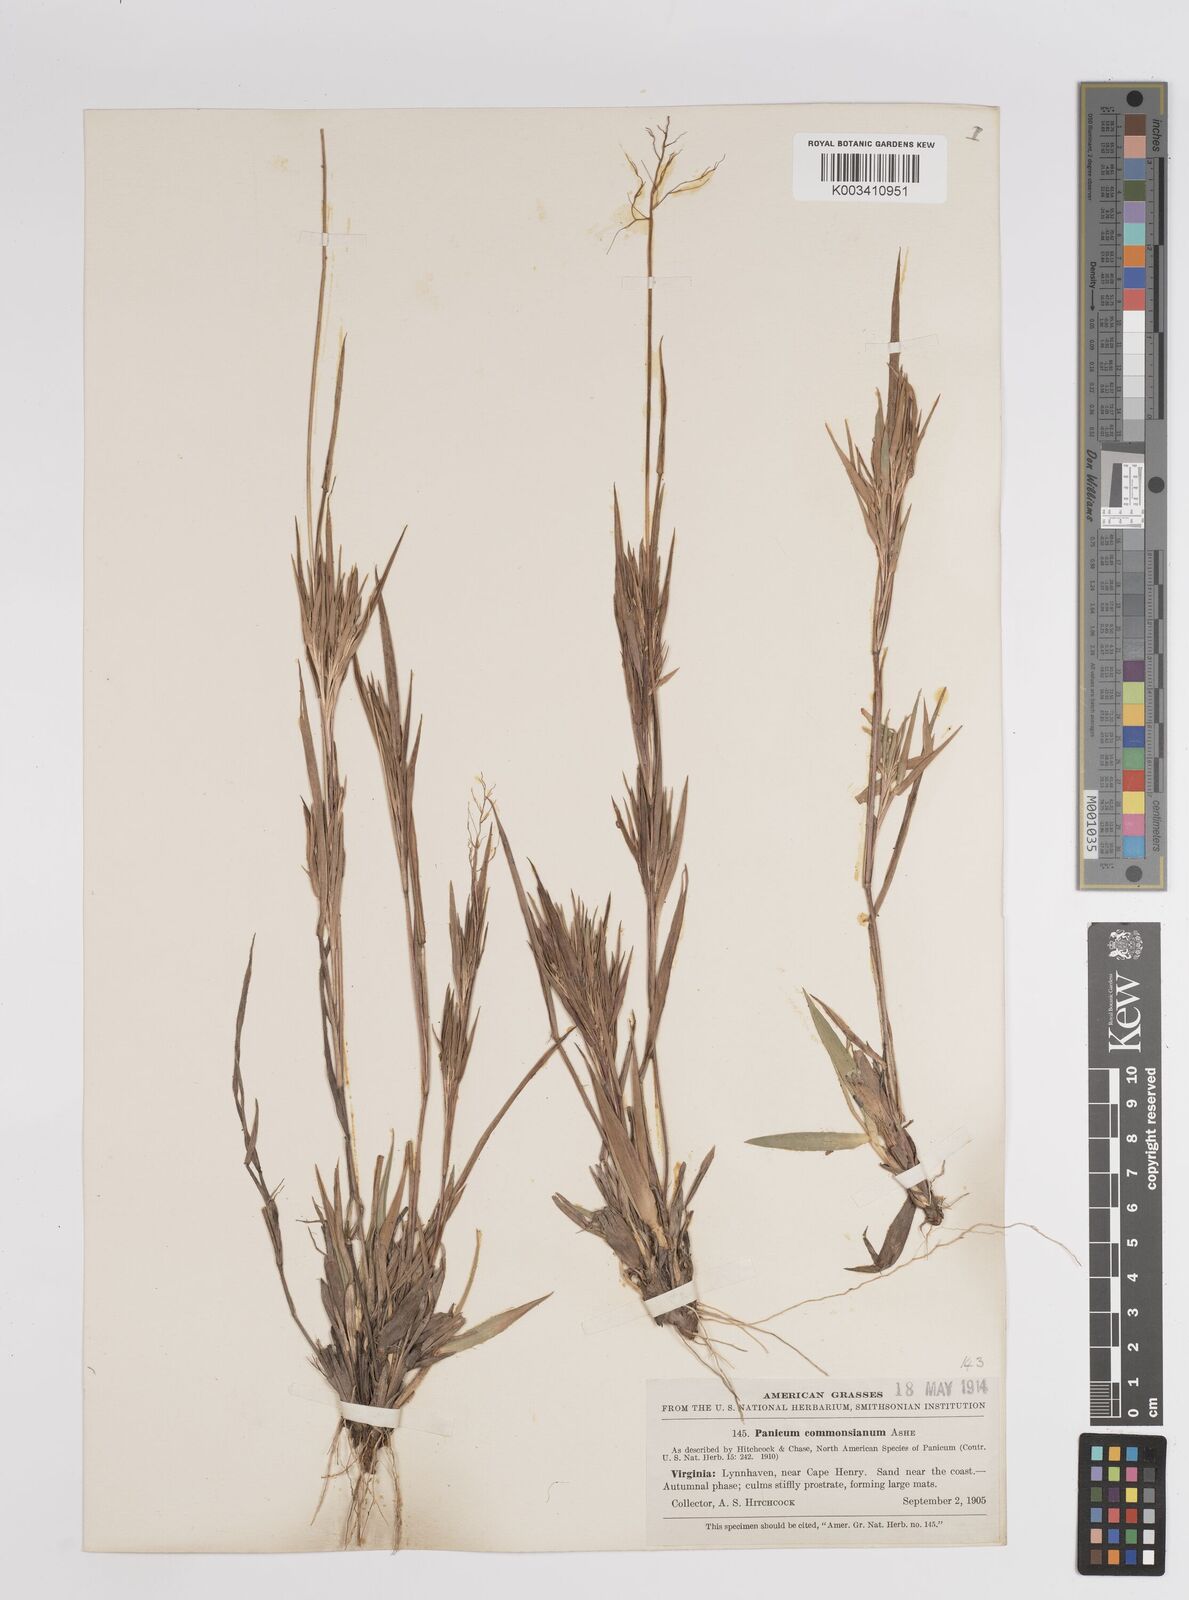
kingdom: Plantae
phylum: Tracheophyta
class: Liliopsida
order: Poales
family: Poaceae
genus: Dichanthelium
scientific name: Dichanthelium commonsianum
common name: Commons' panicgrass
